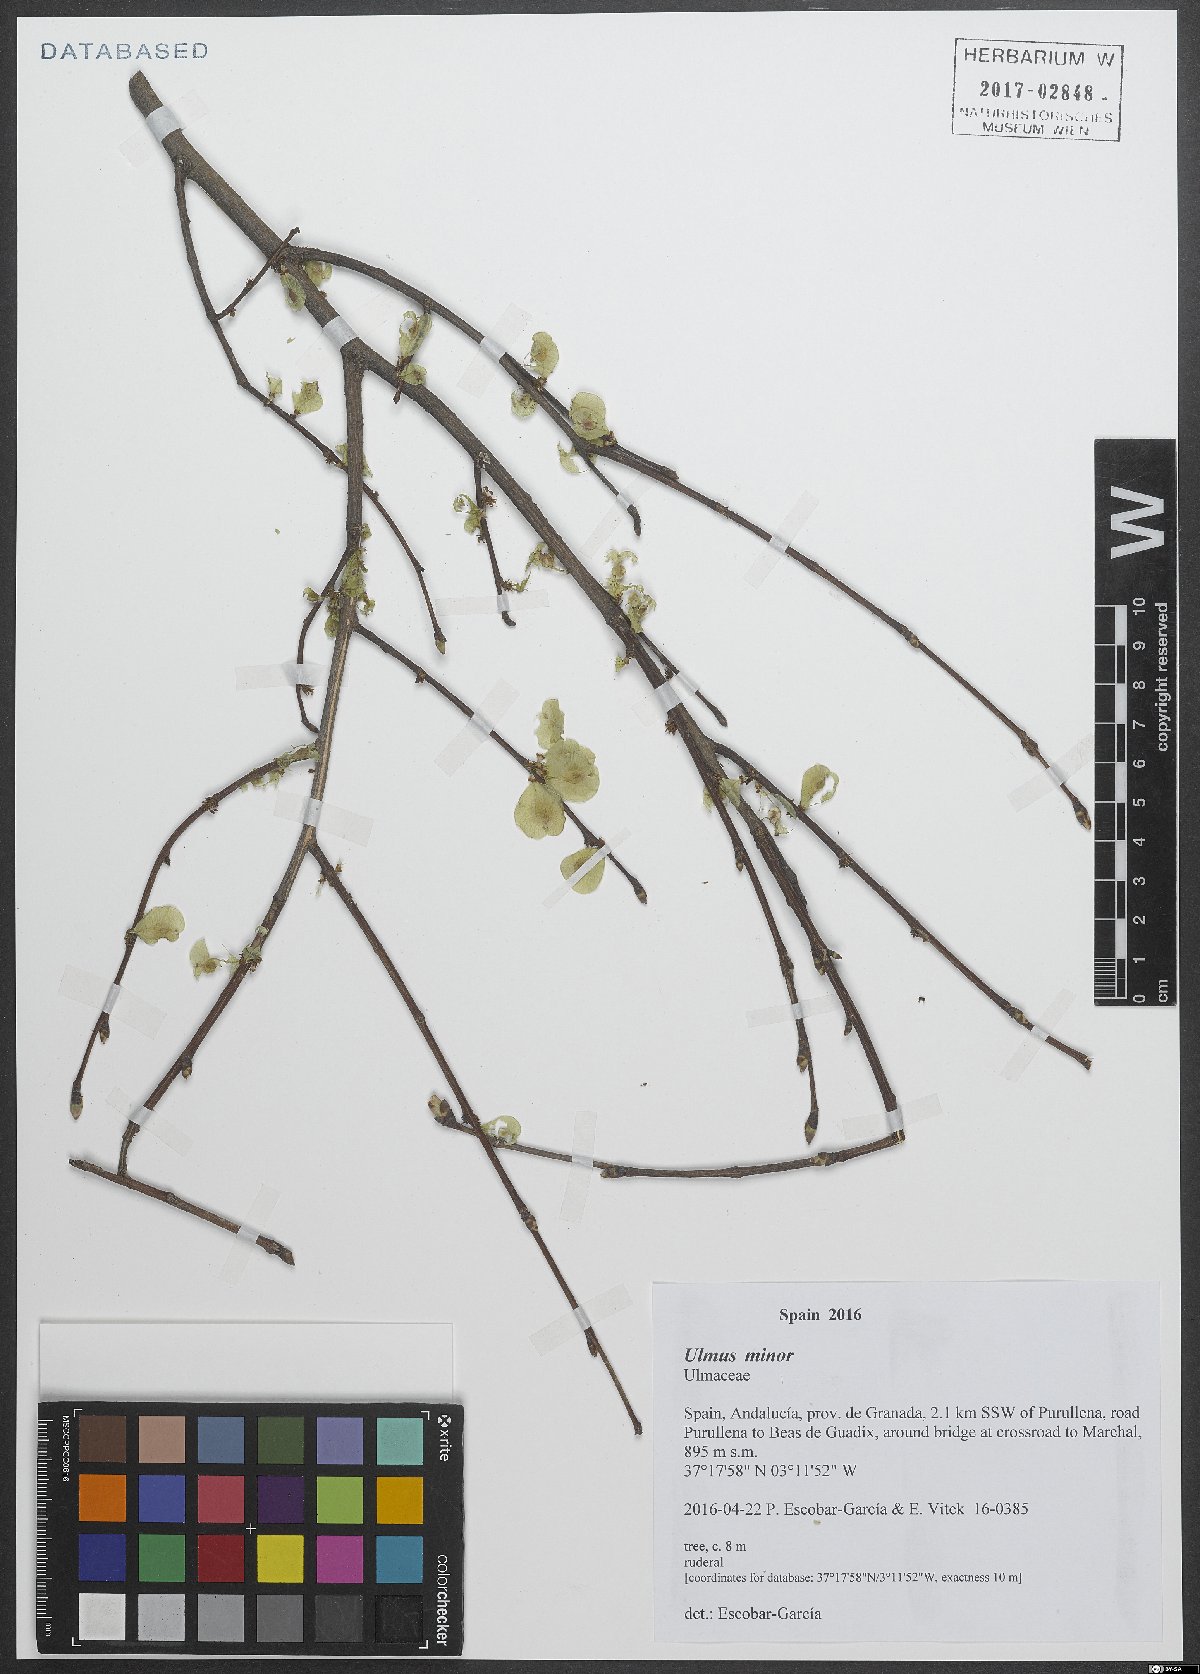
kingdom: Plantae
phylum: Tracheophyta
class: Magnoliopsida
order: Rosales
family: Ulmaceae
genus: Ulmus
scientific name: Ulmus minor
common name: Small-leaved elm
